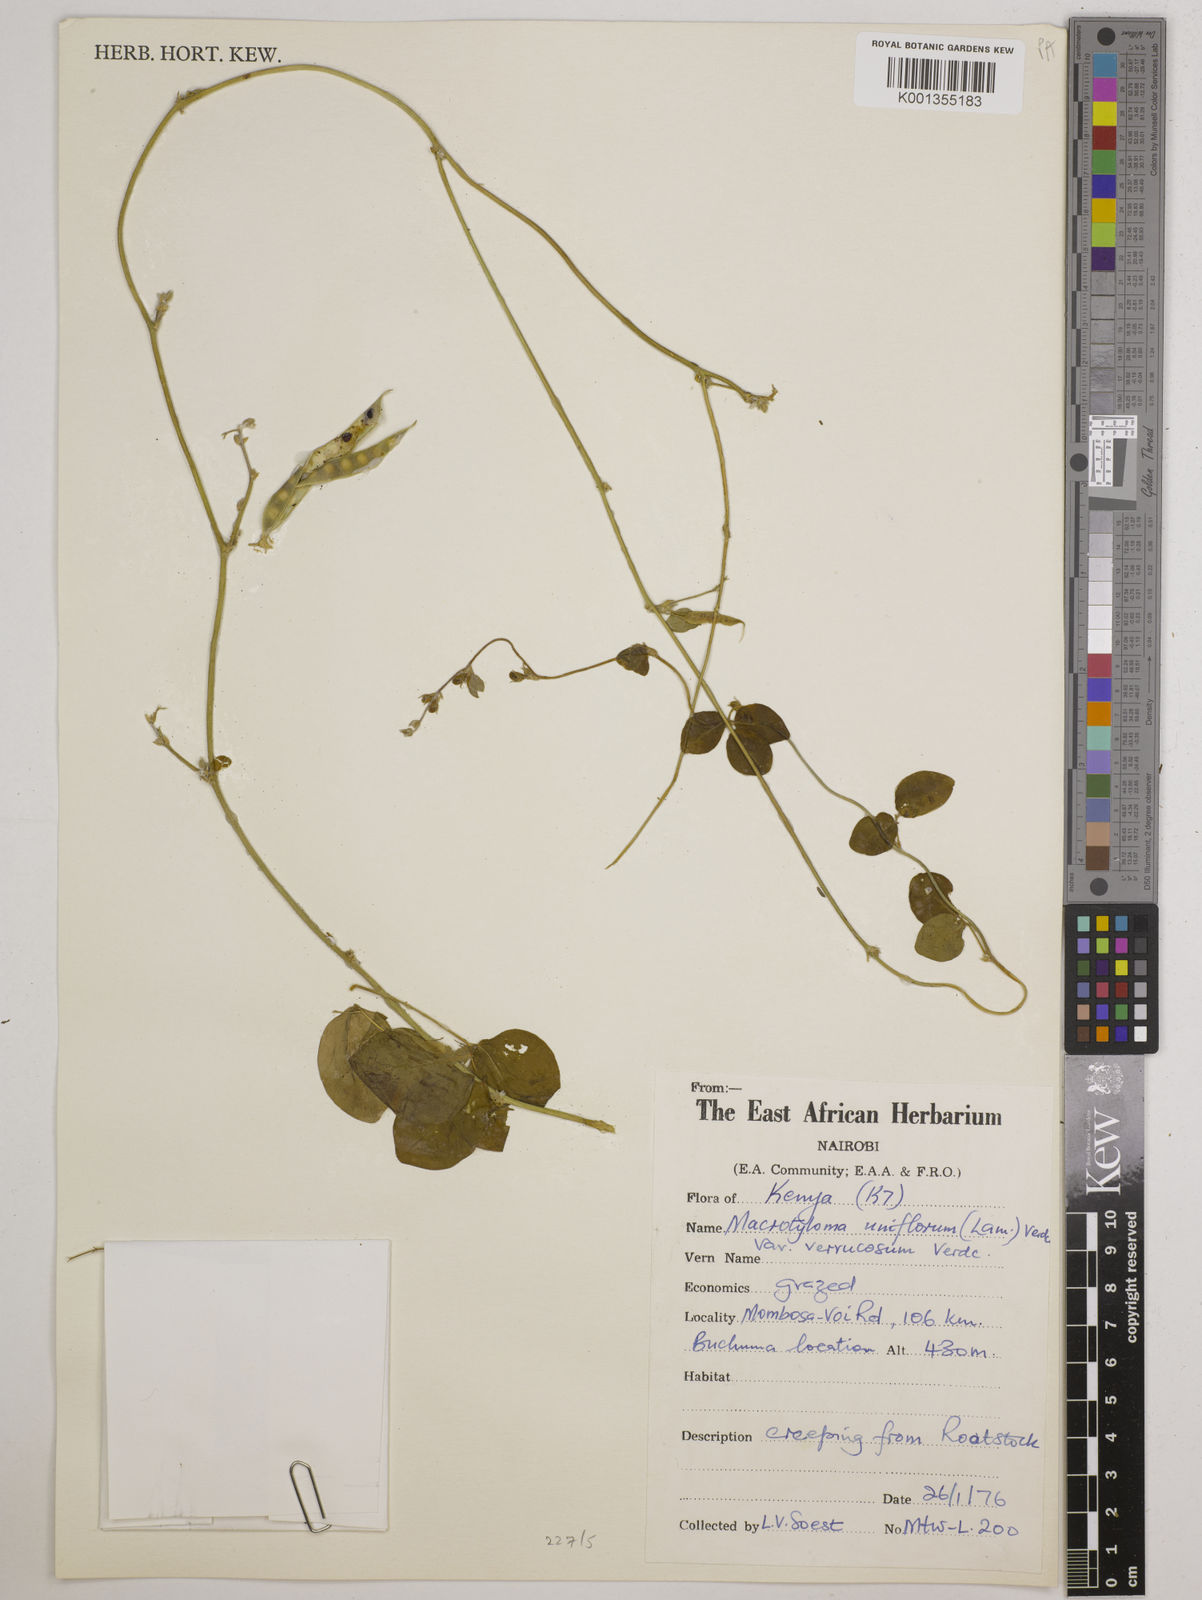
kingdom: Plantae
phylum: Tracheophyta
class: Magnoliopsida
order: Fabales
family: Fabaceae
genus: Macrotyloma
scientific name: Macrotyloma
